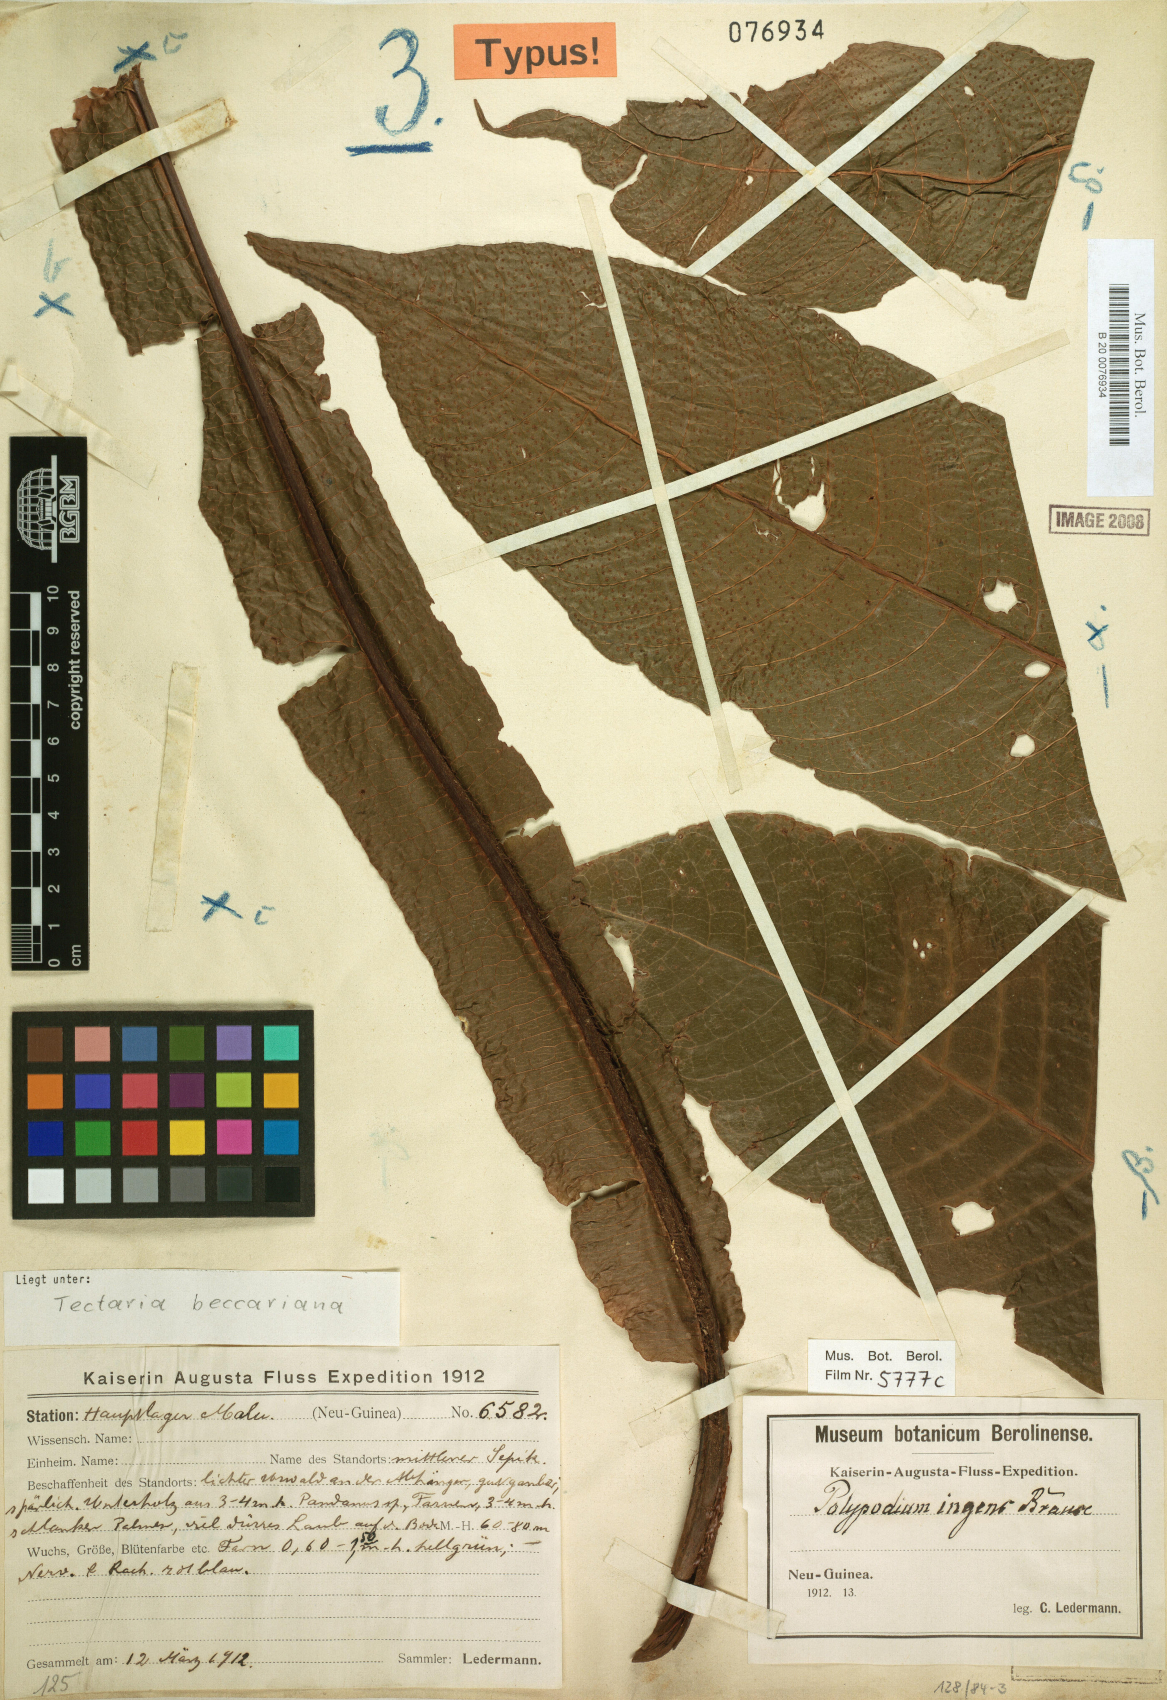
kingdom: Plantae
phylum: Tracheophyta
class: Polypodiopsida
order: Polypodiales
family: Tectariaceae
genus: Tectaria
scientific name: Tectaria beccariana
